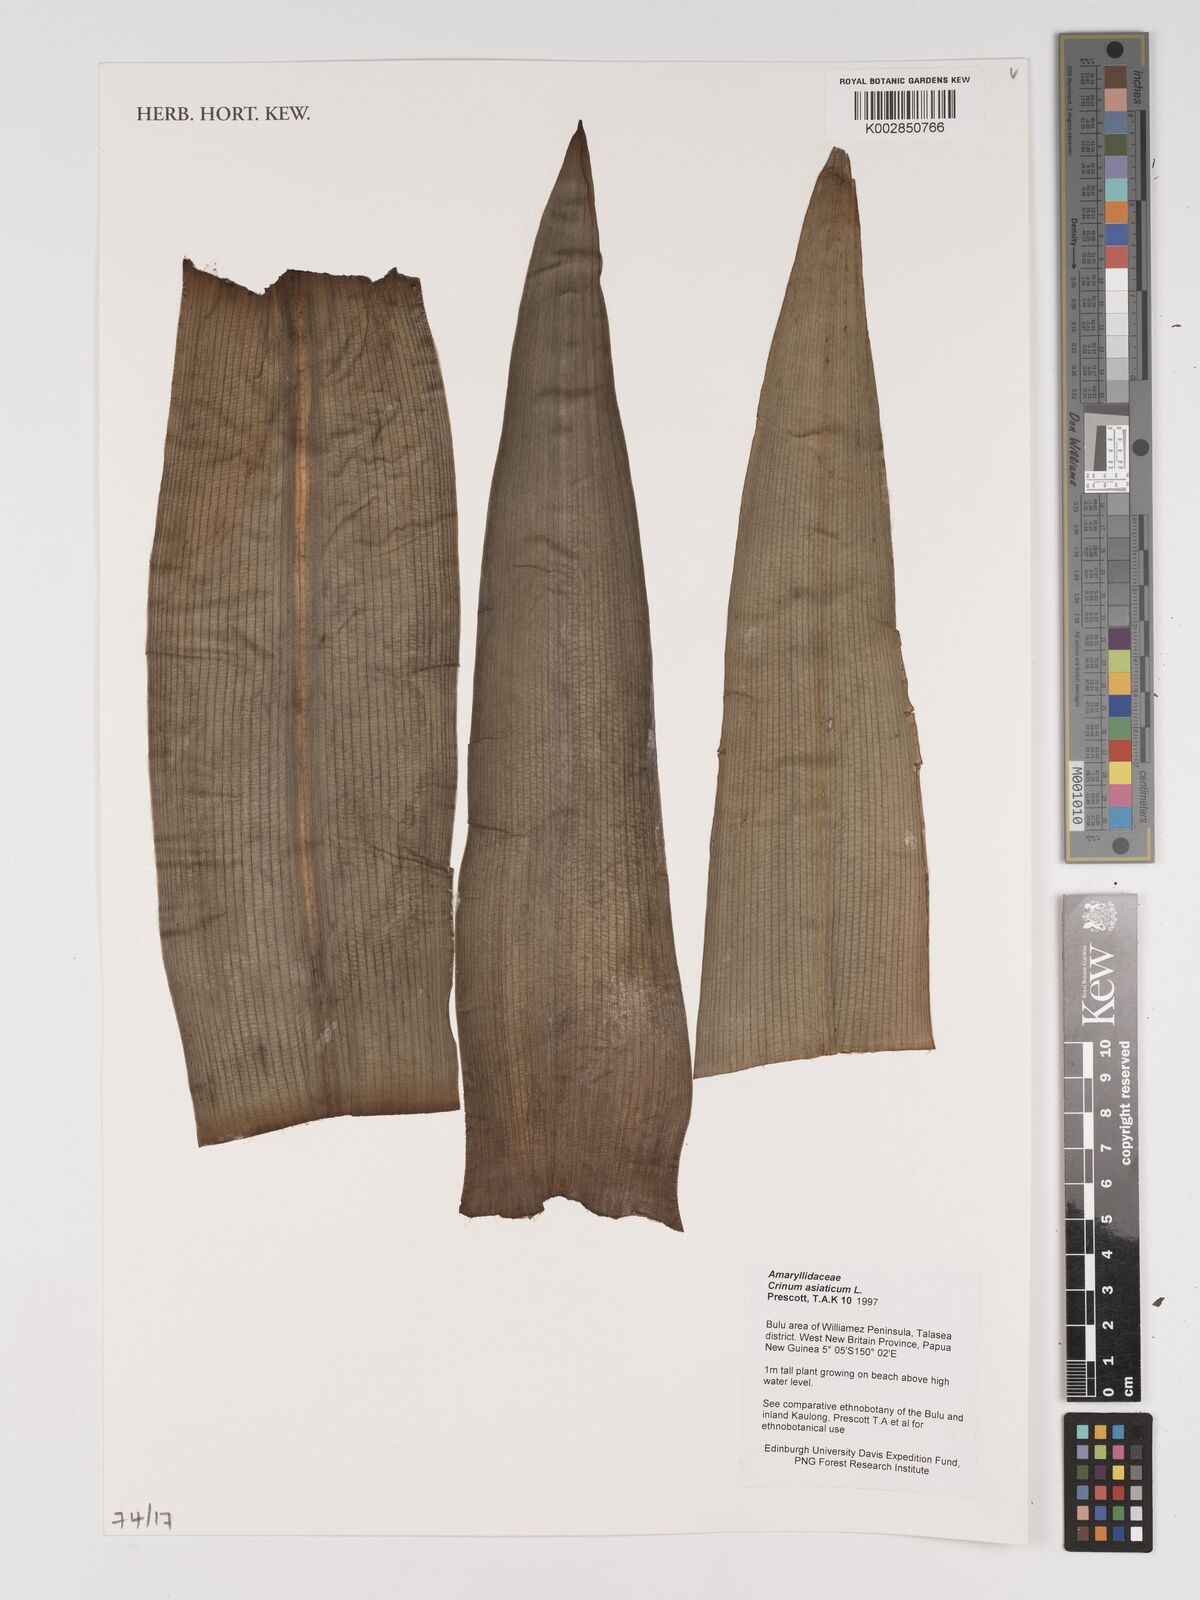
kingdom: Plantae
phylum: Tracheophyta
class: Liliopsida
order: Asparagales
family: Amaryllidaceae
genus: Crinum
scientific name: Crinum asiaticum
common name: Poisonbulb
